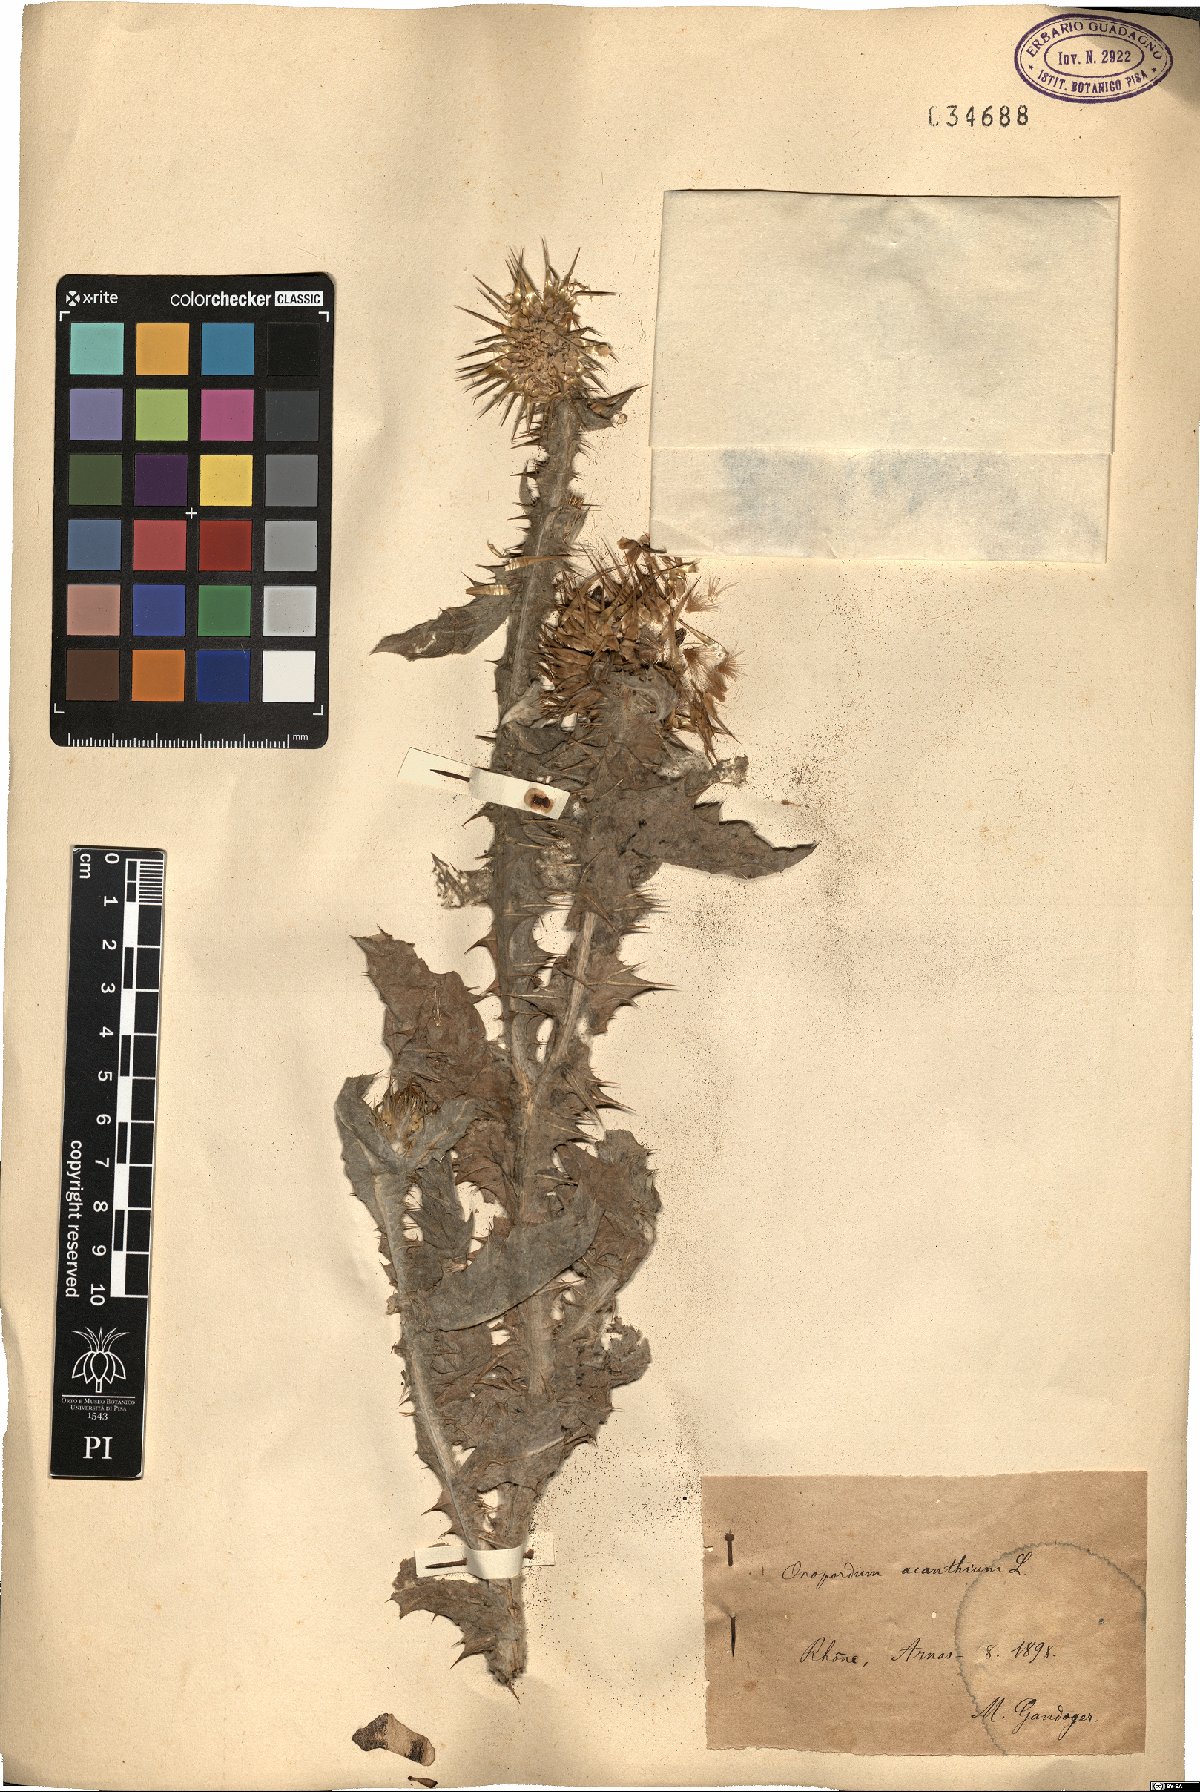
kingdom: Plantae
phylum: Tracheophyta
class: Magnoliopsida
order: Asterales
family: Asteraceae
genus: Onopordum
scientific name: Onopordum acanthium
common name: Scotch thistle
